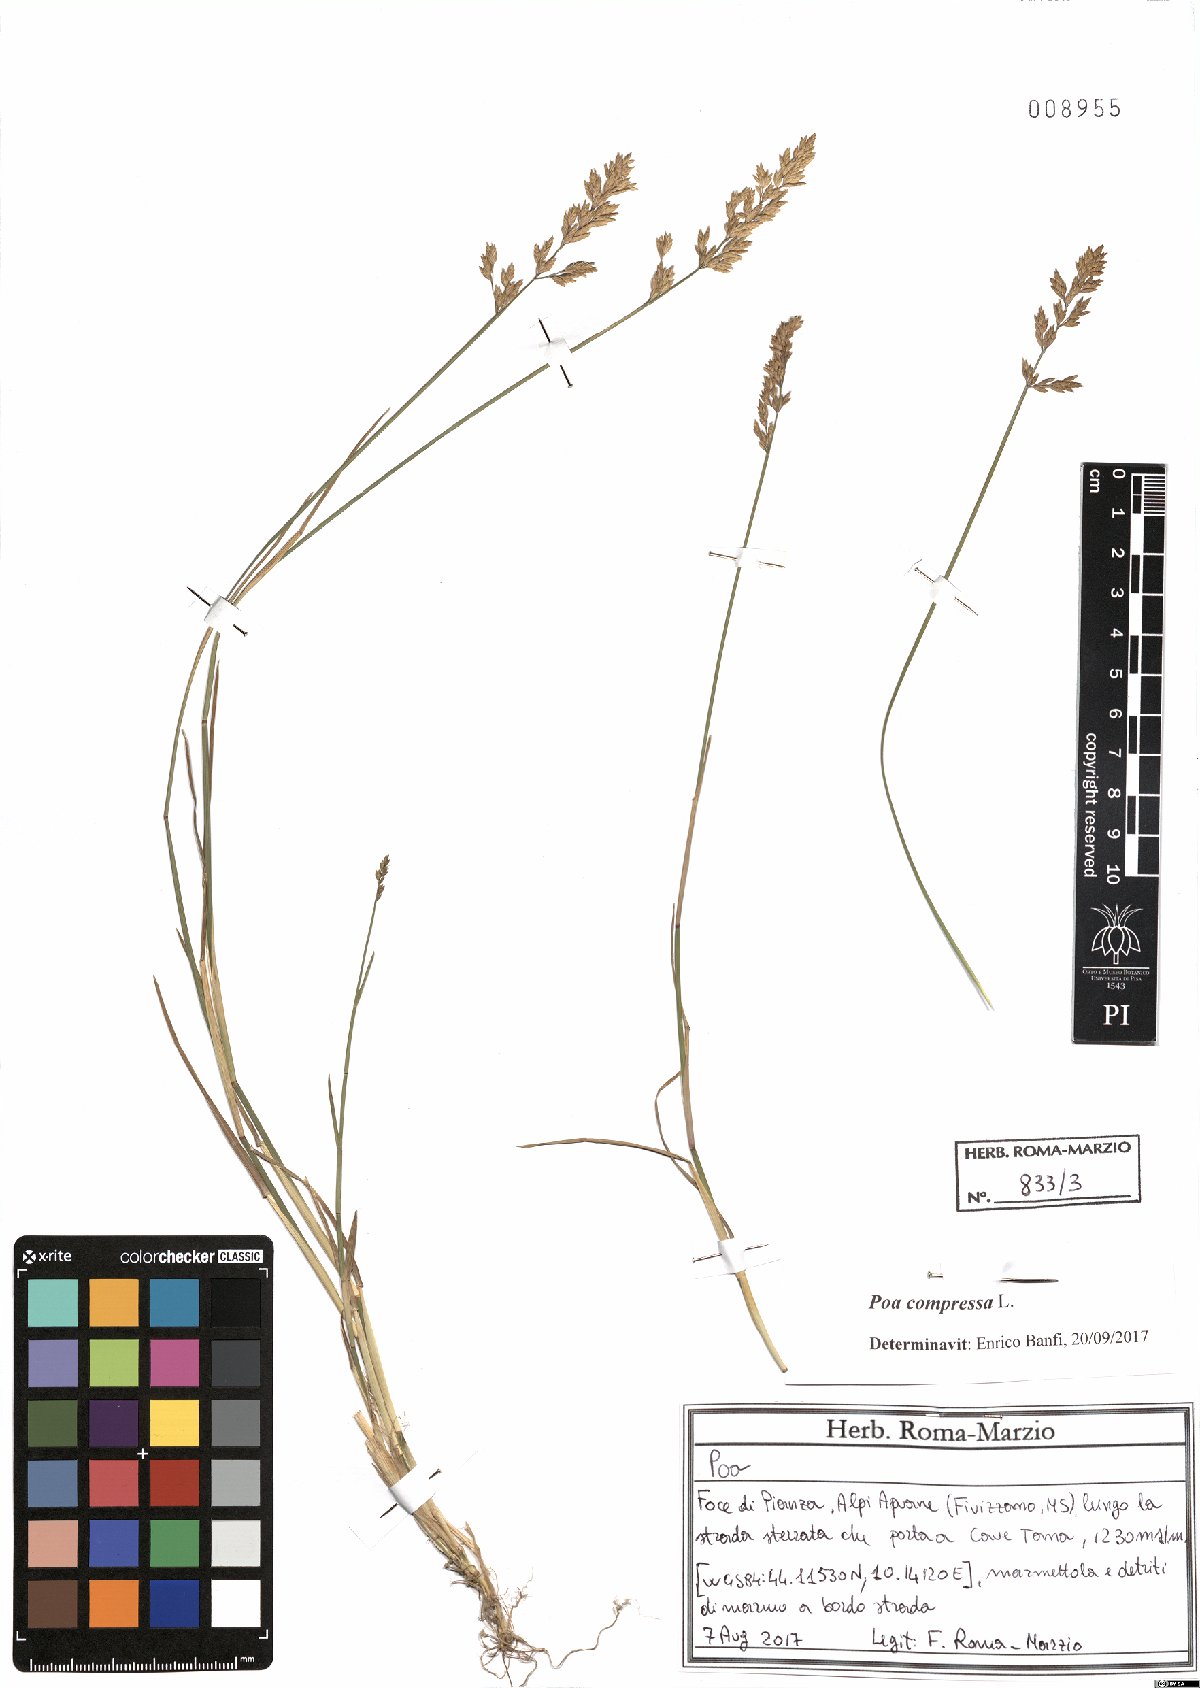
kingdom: Plantae
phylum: Tracheophyta
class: Liliopsida
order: Poales
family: Poaceae
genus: Poa
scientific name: Poa compressa
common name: Canada bluegrass
